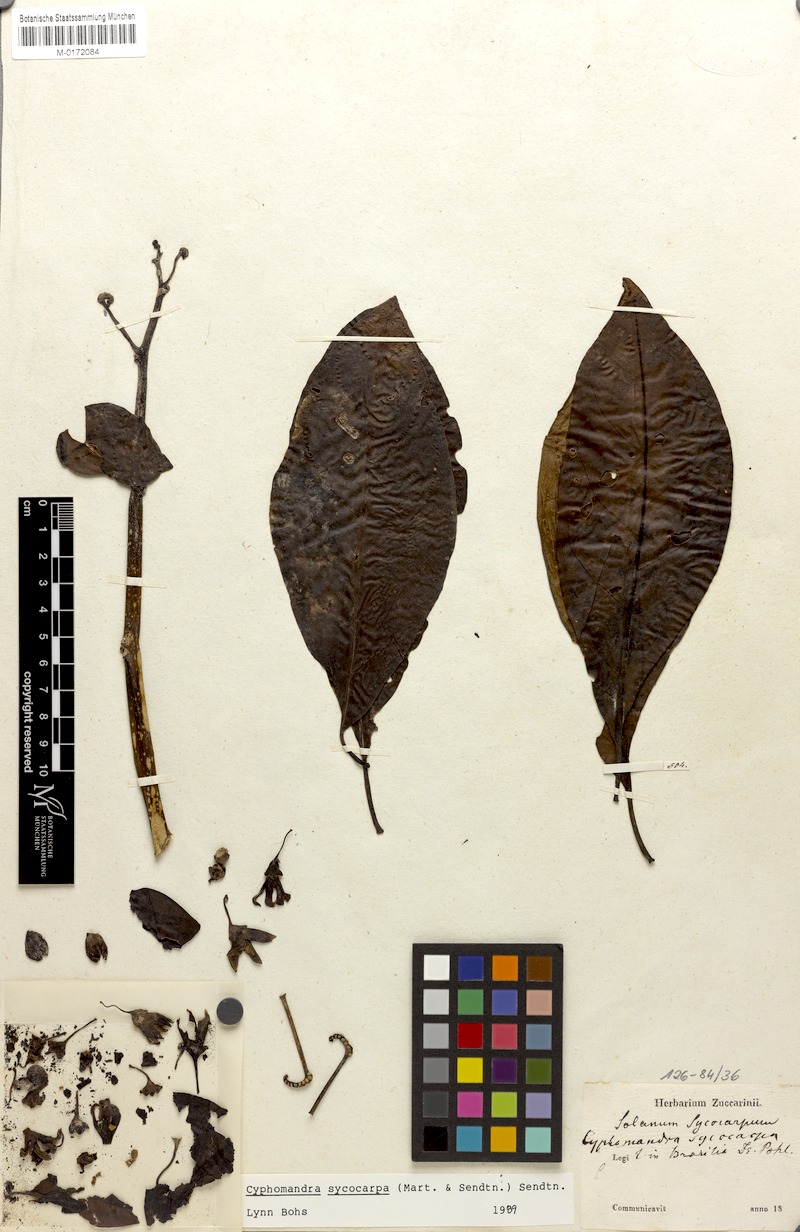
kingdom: Plantae
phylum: Tracheophyta
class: Magnoliopsida
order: Solanales
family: Solanaceae
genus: Solanum
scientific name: Solanum sycocarpum
